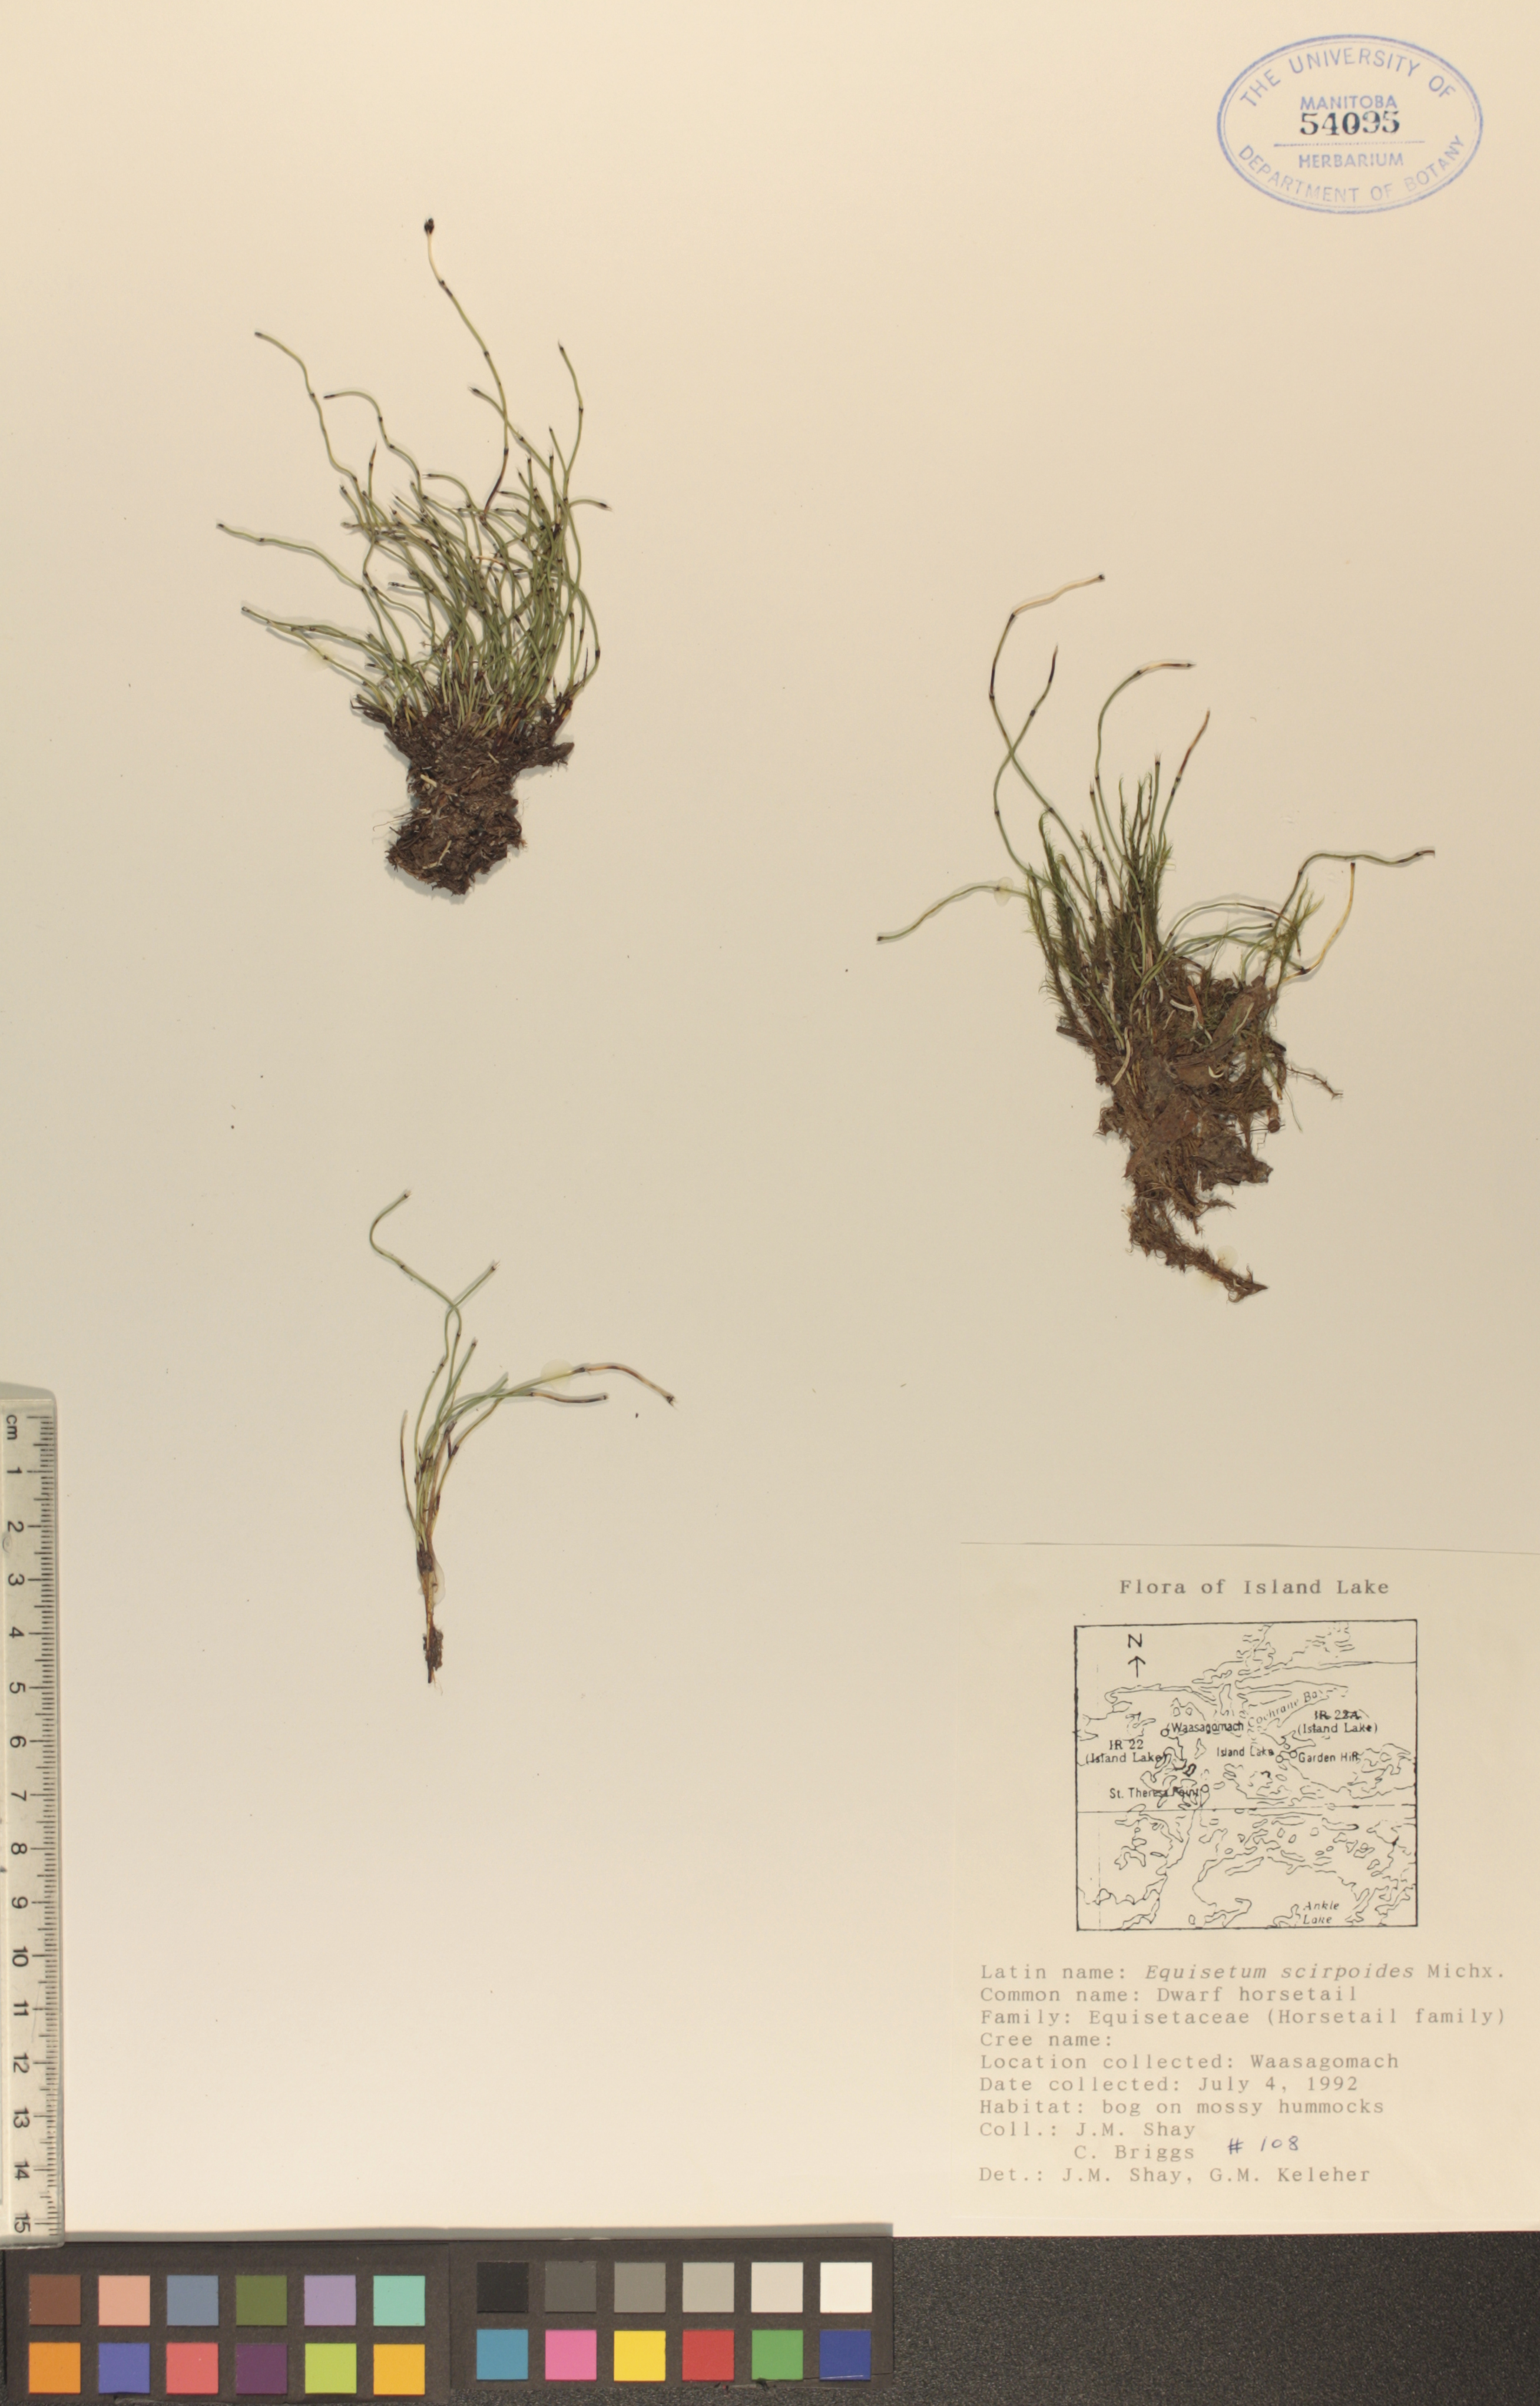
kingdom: Plantae
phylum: Tracheophyta
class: Polypodiopsida
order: Equisetales
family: Equisetaceae
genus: Equisetum
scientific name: Equisetum scirpoides
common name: Delicate horsetail
